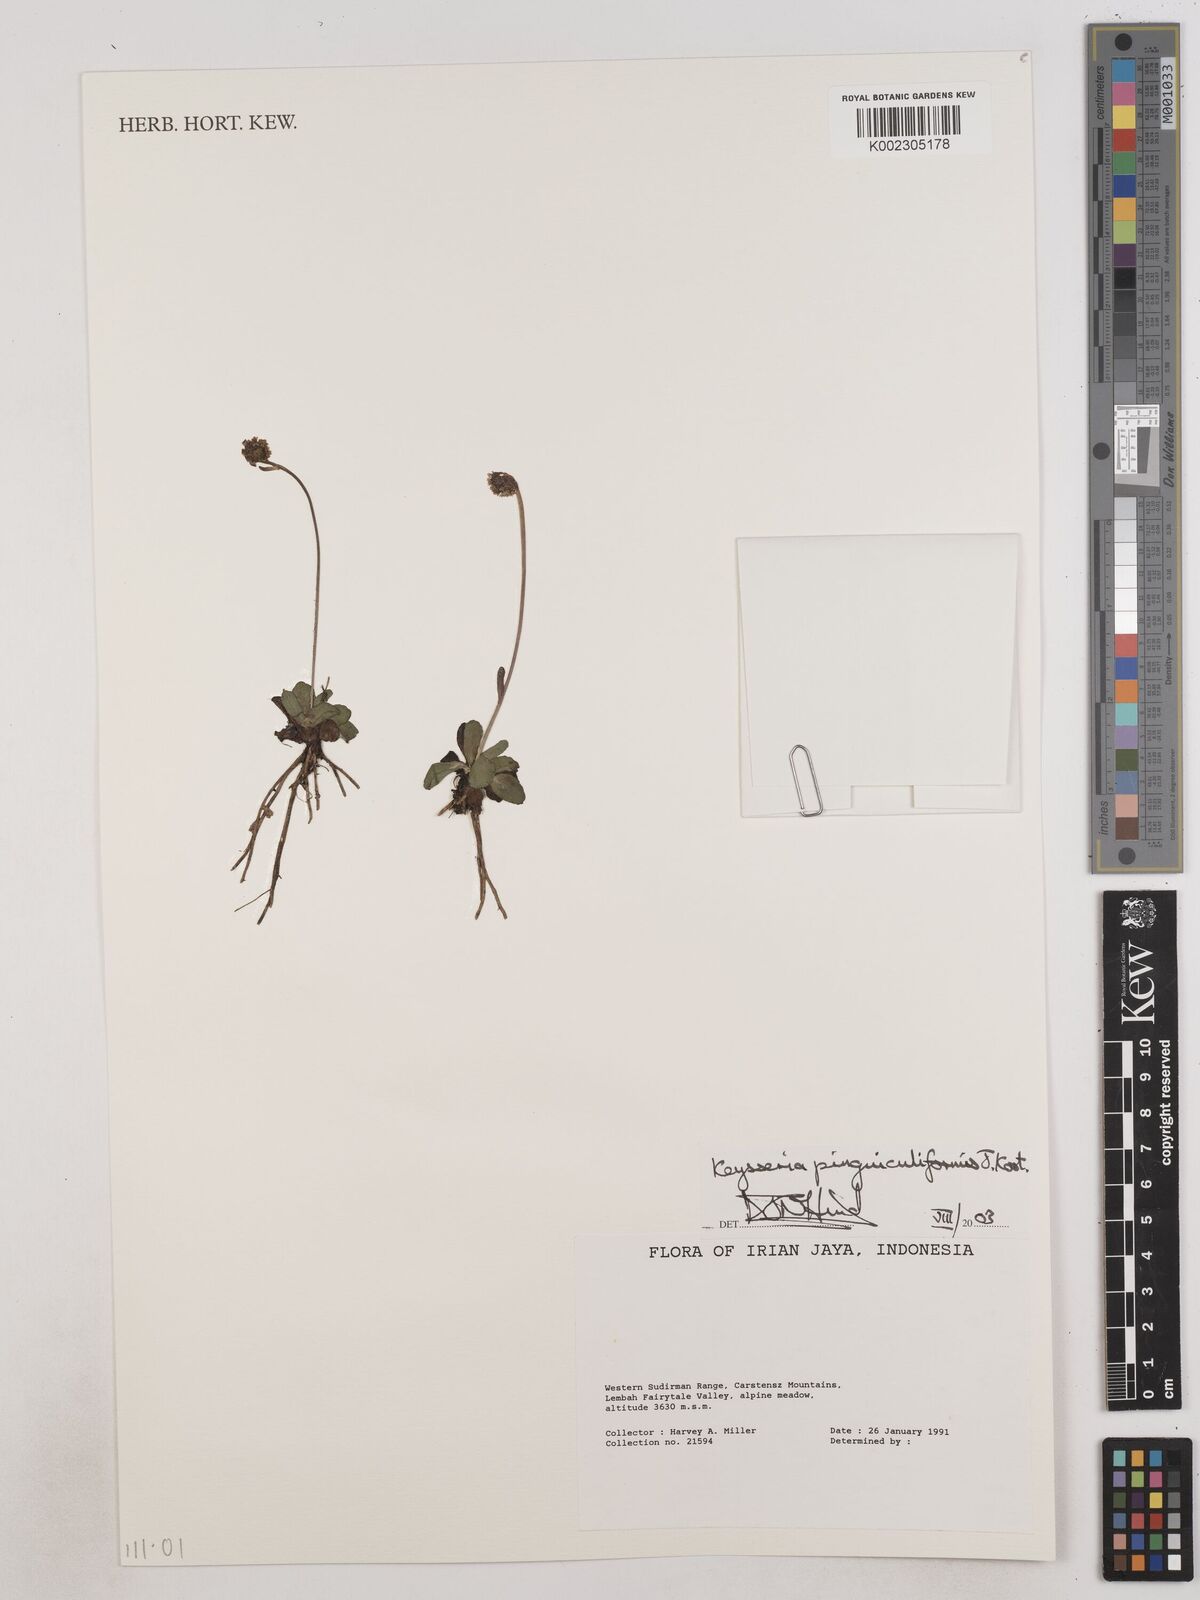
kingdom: Plantae
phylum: Tracheophyta
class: Magnoliopsida
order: Asterales
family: Asteraceae
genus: Keysseria
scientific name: Keysseria pinguiculiformis
